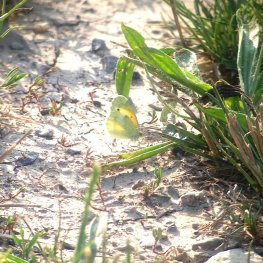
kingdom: Animalia
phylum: Arthropoda
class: Insecta
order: Lepidoptera
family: Pieridae
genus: Nathalis
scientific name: Nathalis iole
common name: Dainty Sulphur
